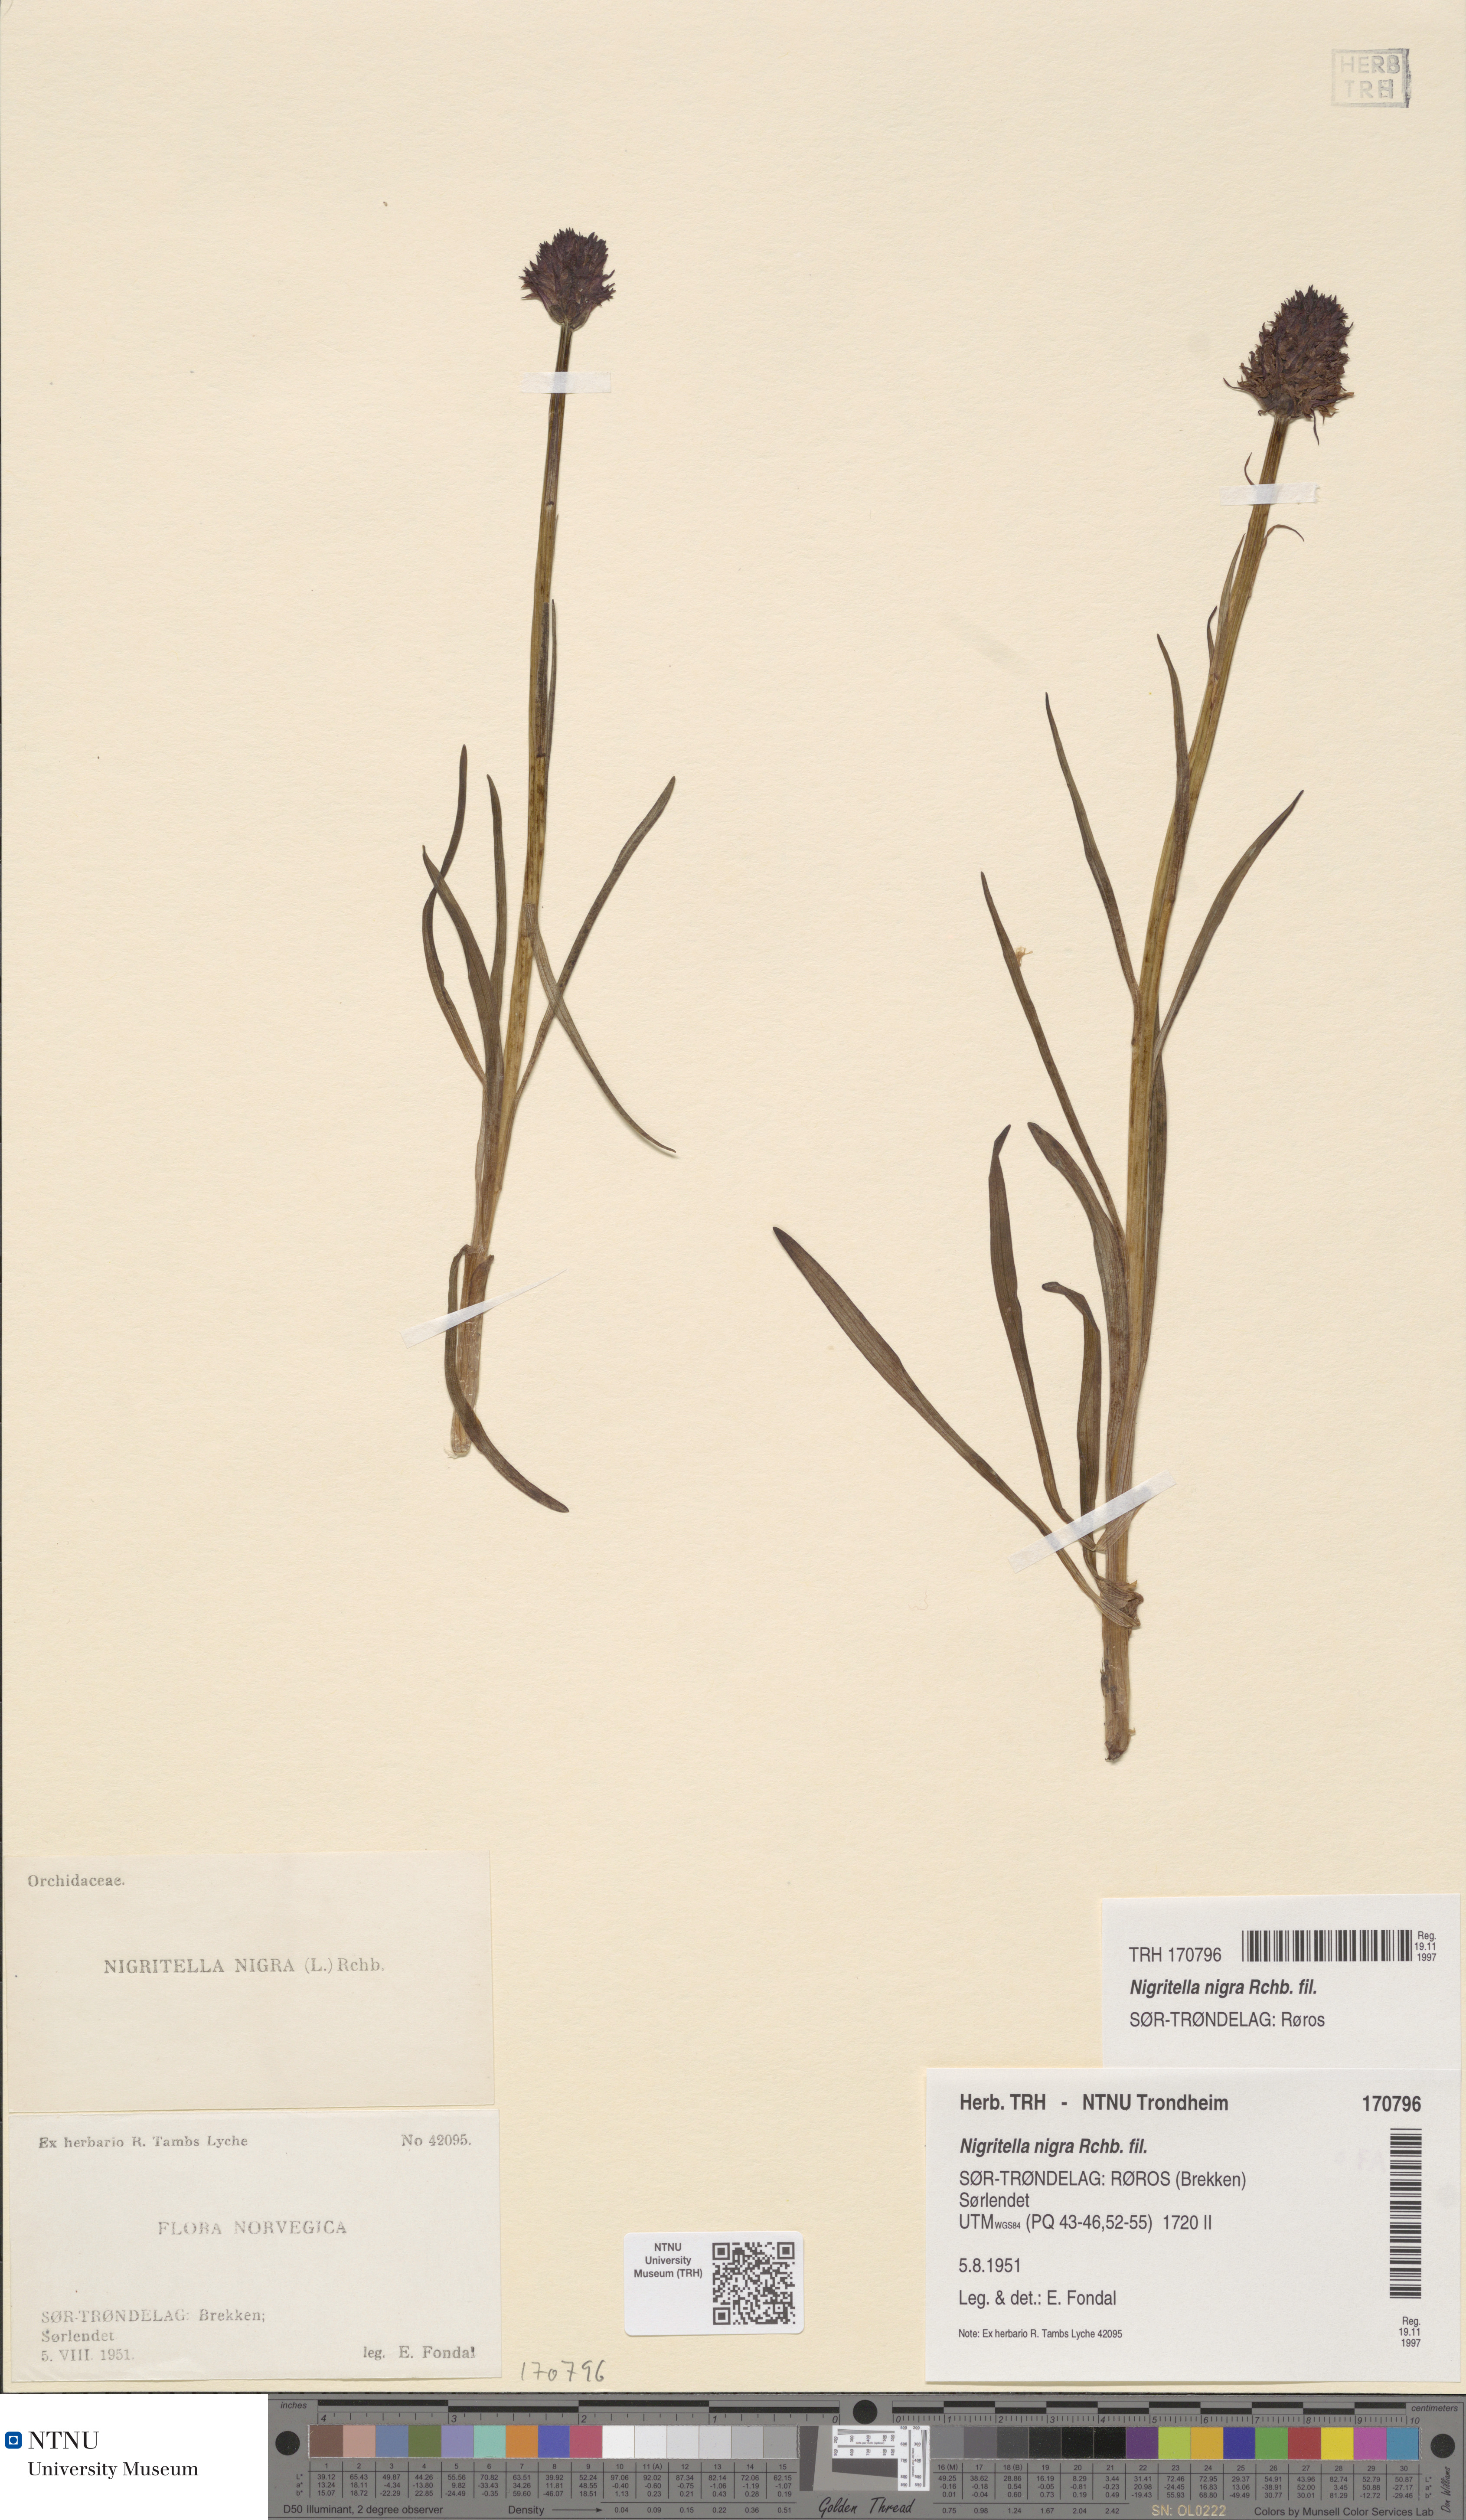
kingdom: Plantae
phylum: Tracheophyta
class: Liliopsida
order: Asparagales
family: Orchidaceae
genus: Gymnadenia
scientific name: Gymnadenia nigra
